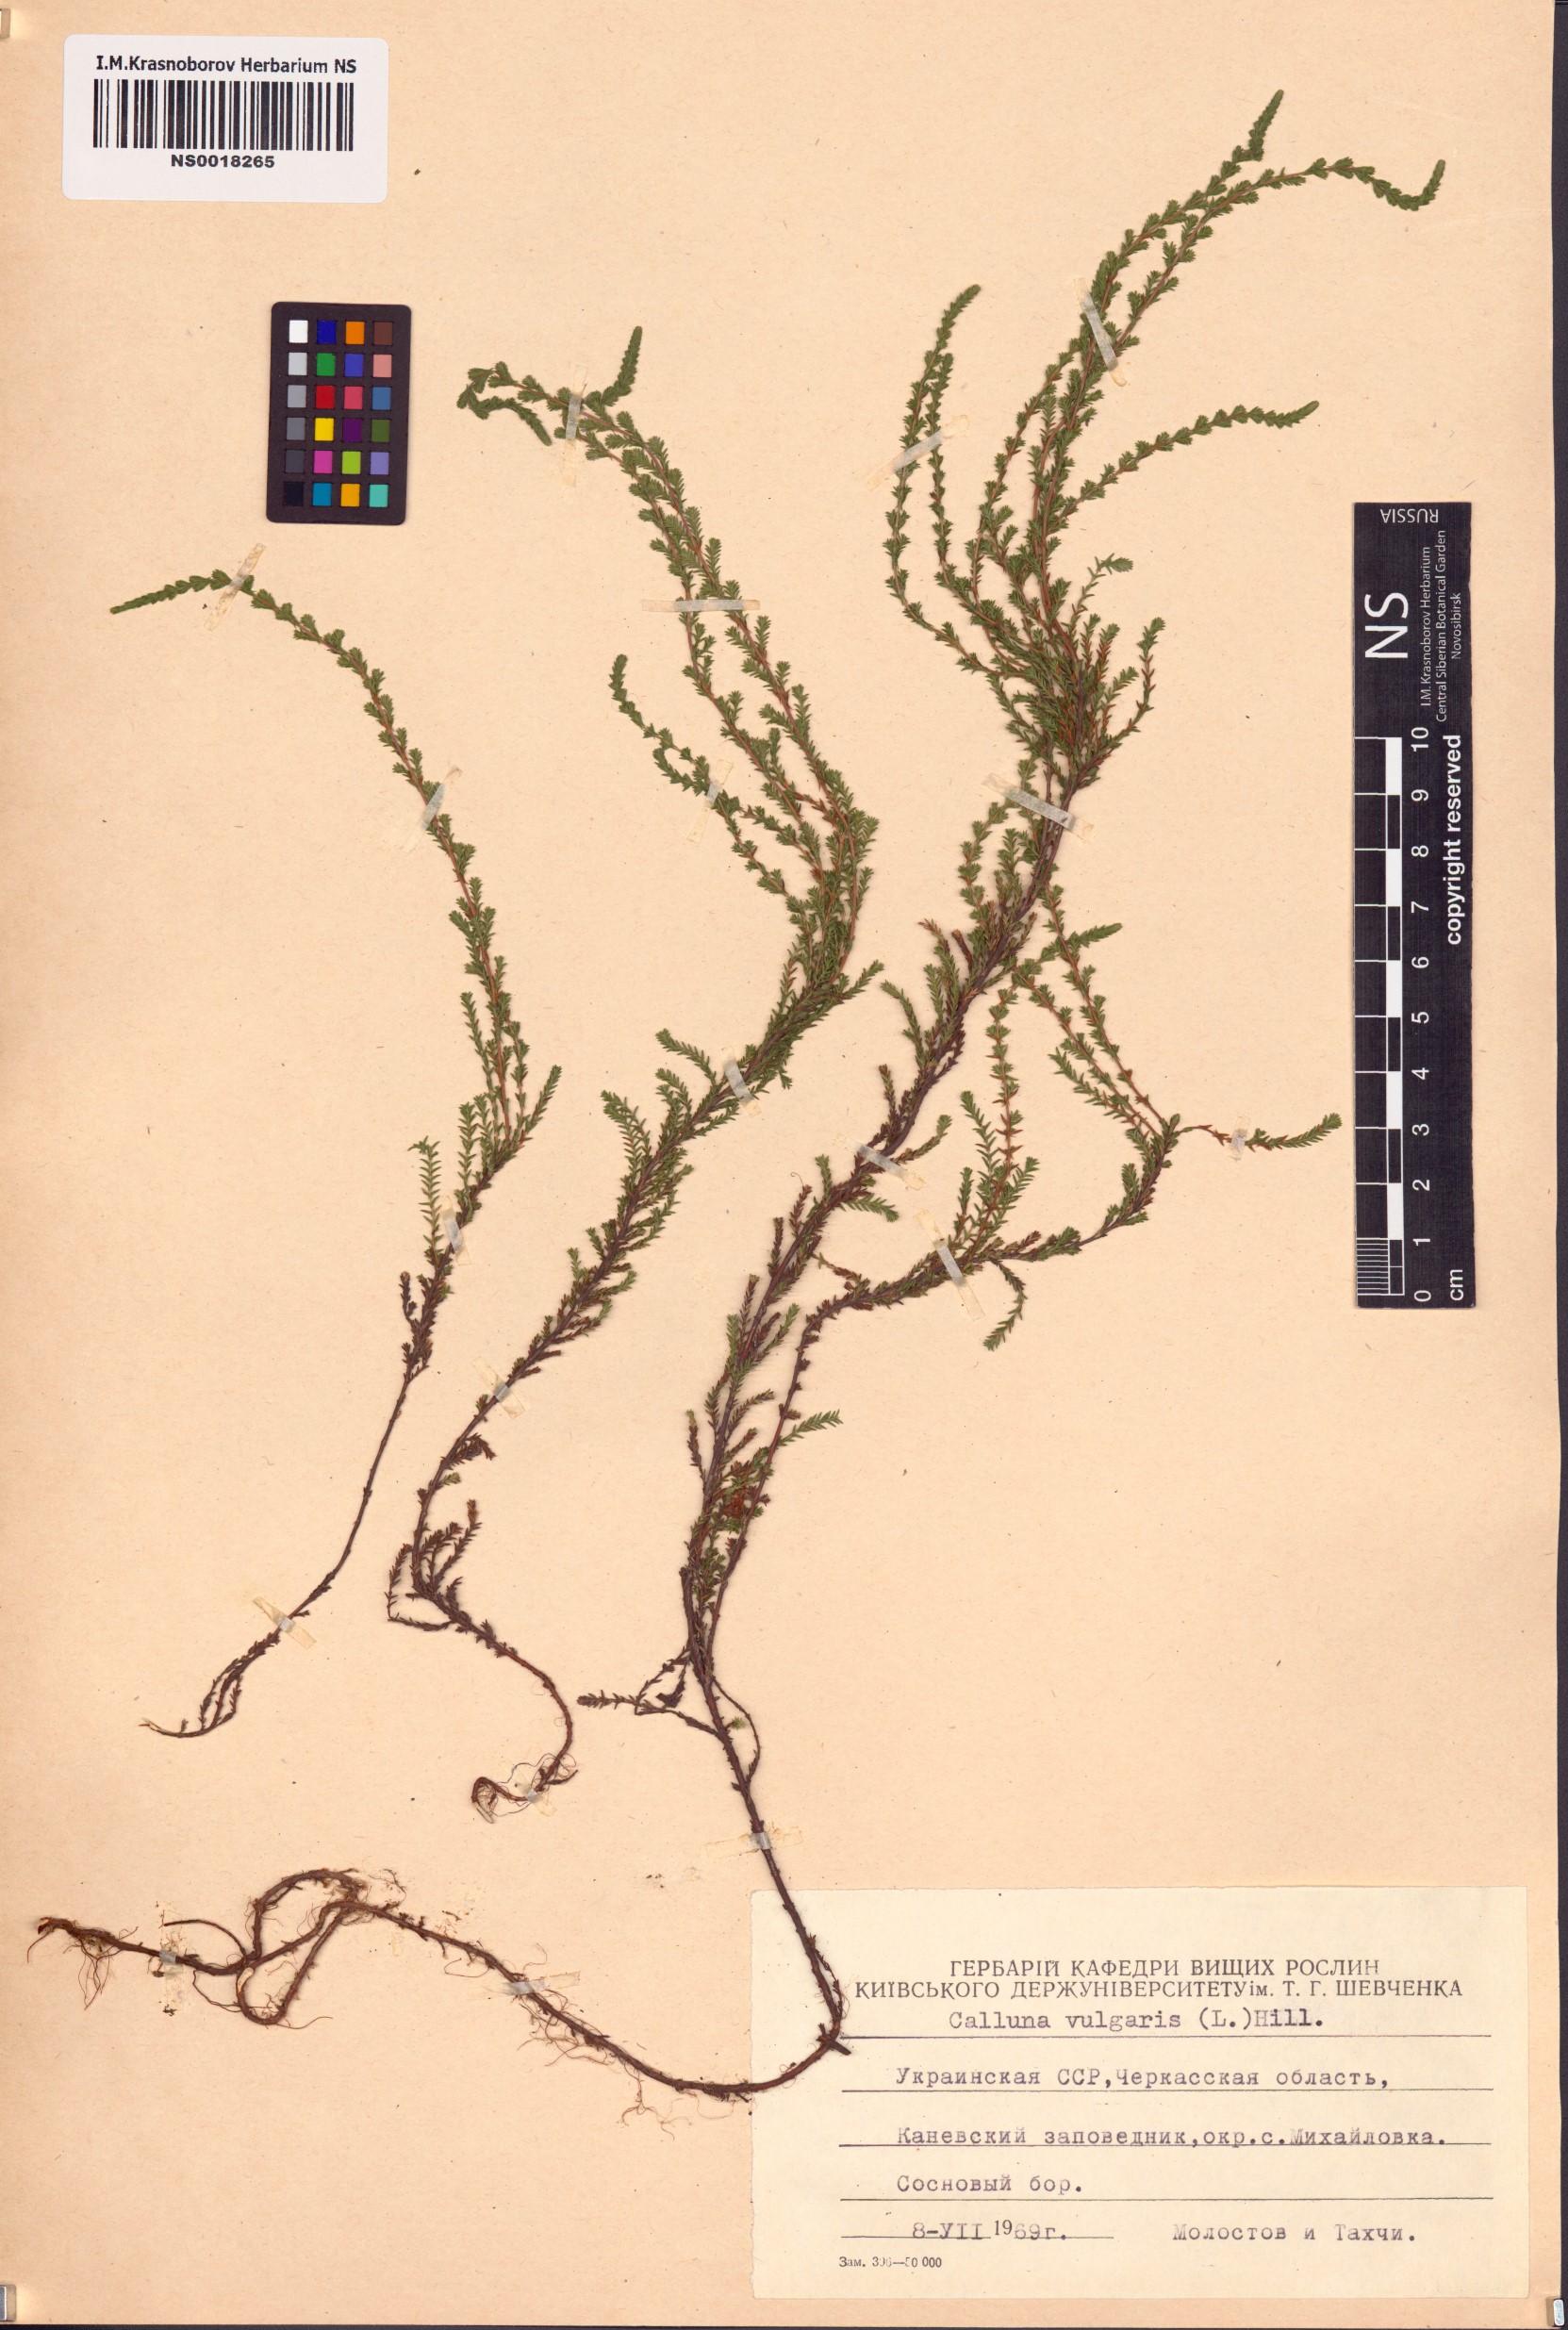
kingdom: Plantae
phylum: Tracheophyta
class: Magnoliopsida
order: Ericales
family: Ericaceae
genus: Calluna
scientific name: Calluna vulgaris
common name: Heather
